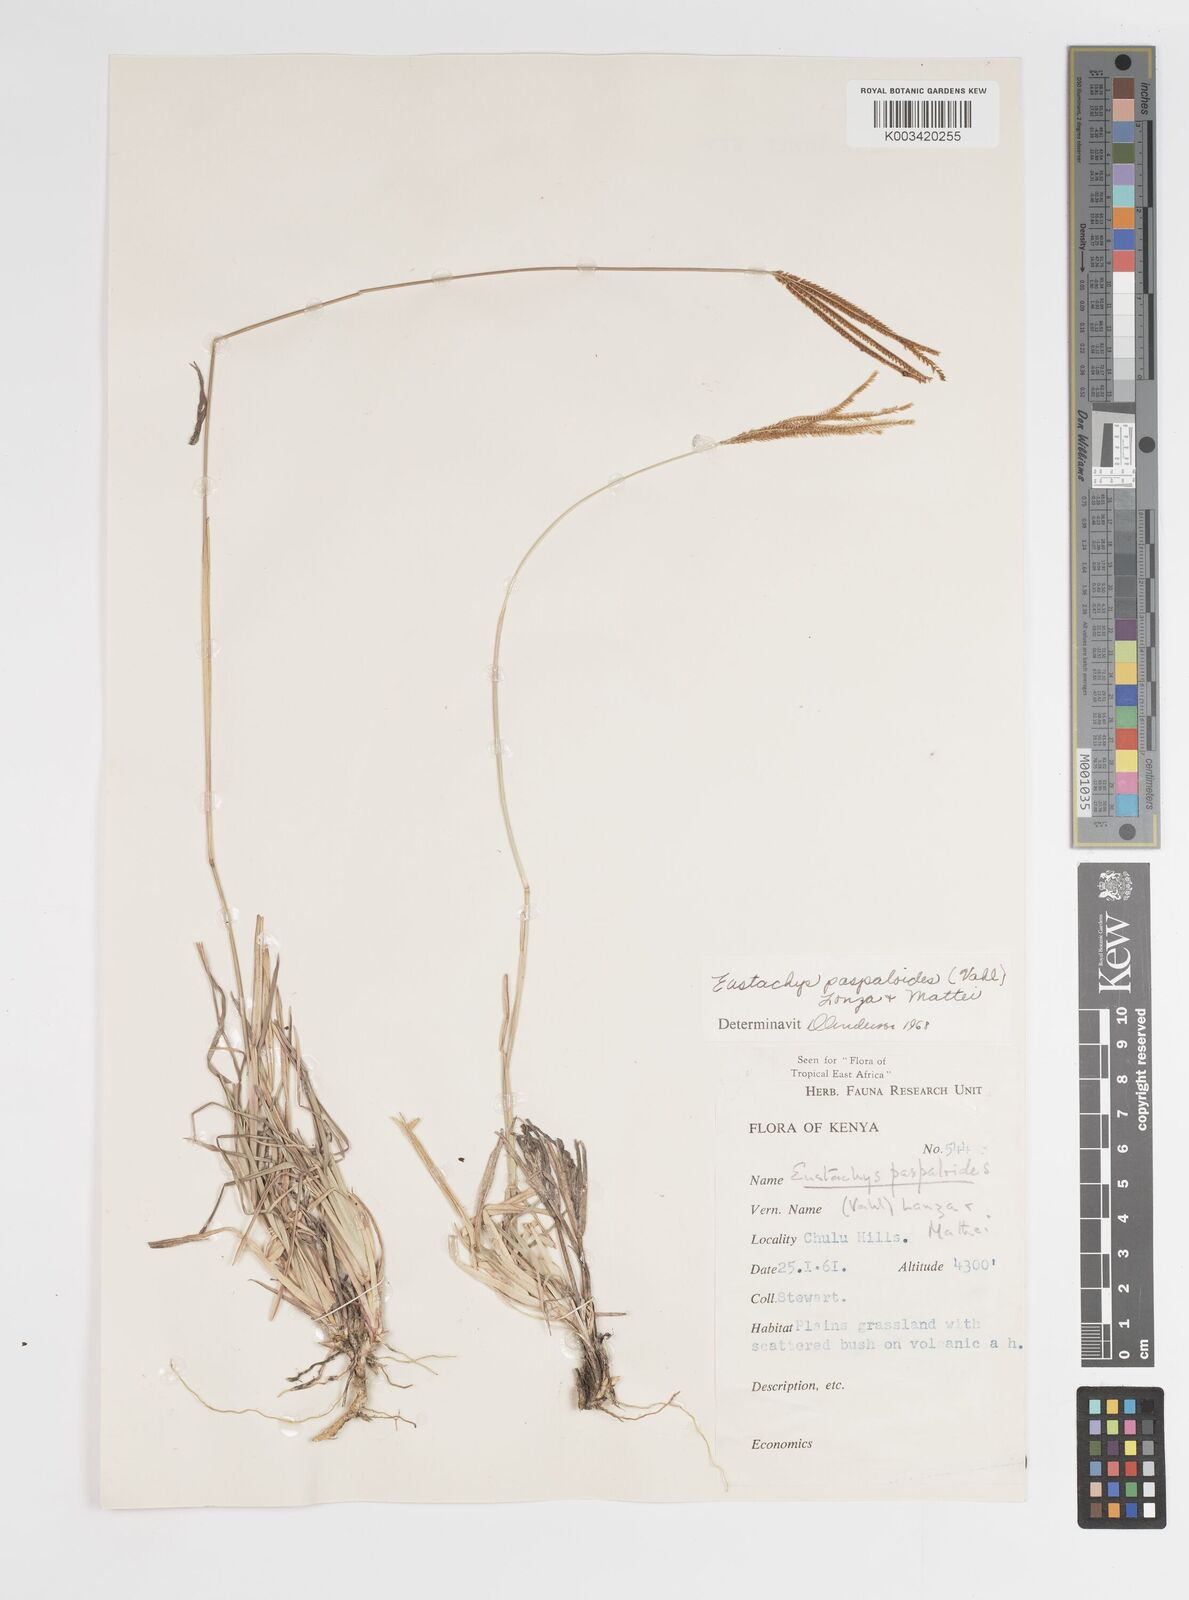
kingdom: Plantae
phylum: Tracheophyta
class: Liliopsida
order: Poales
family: Poaceae
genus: Eustachys
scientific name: Eustachys paspaloides
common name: Caribbean fingergrass
